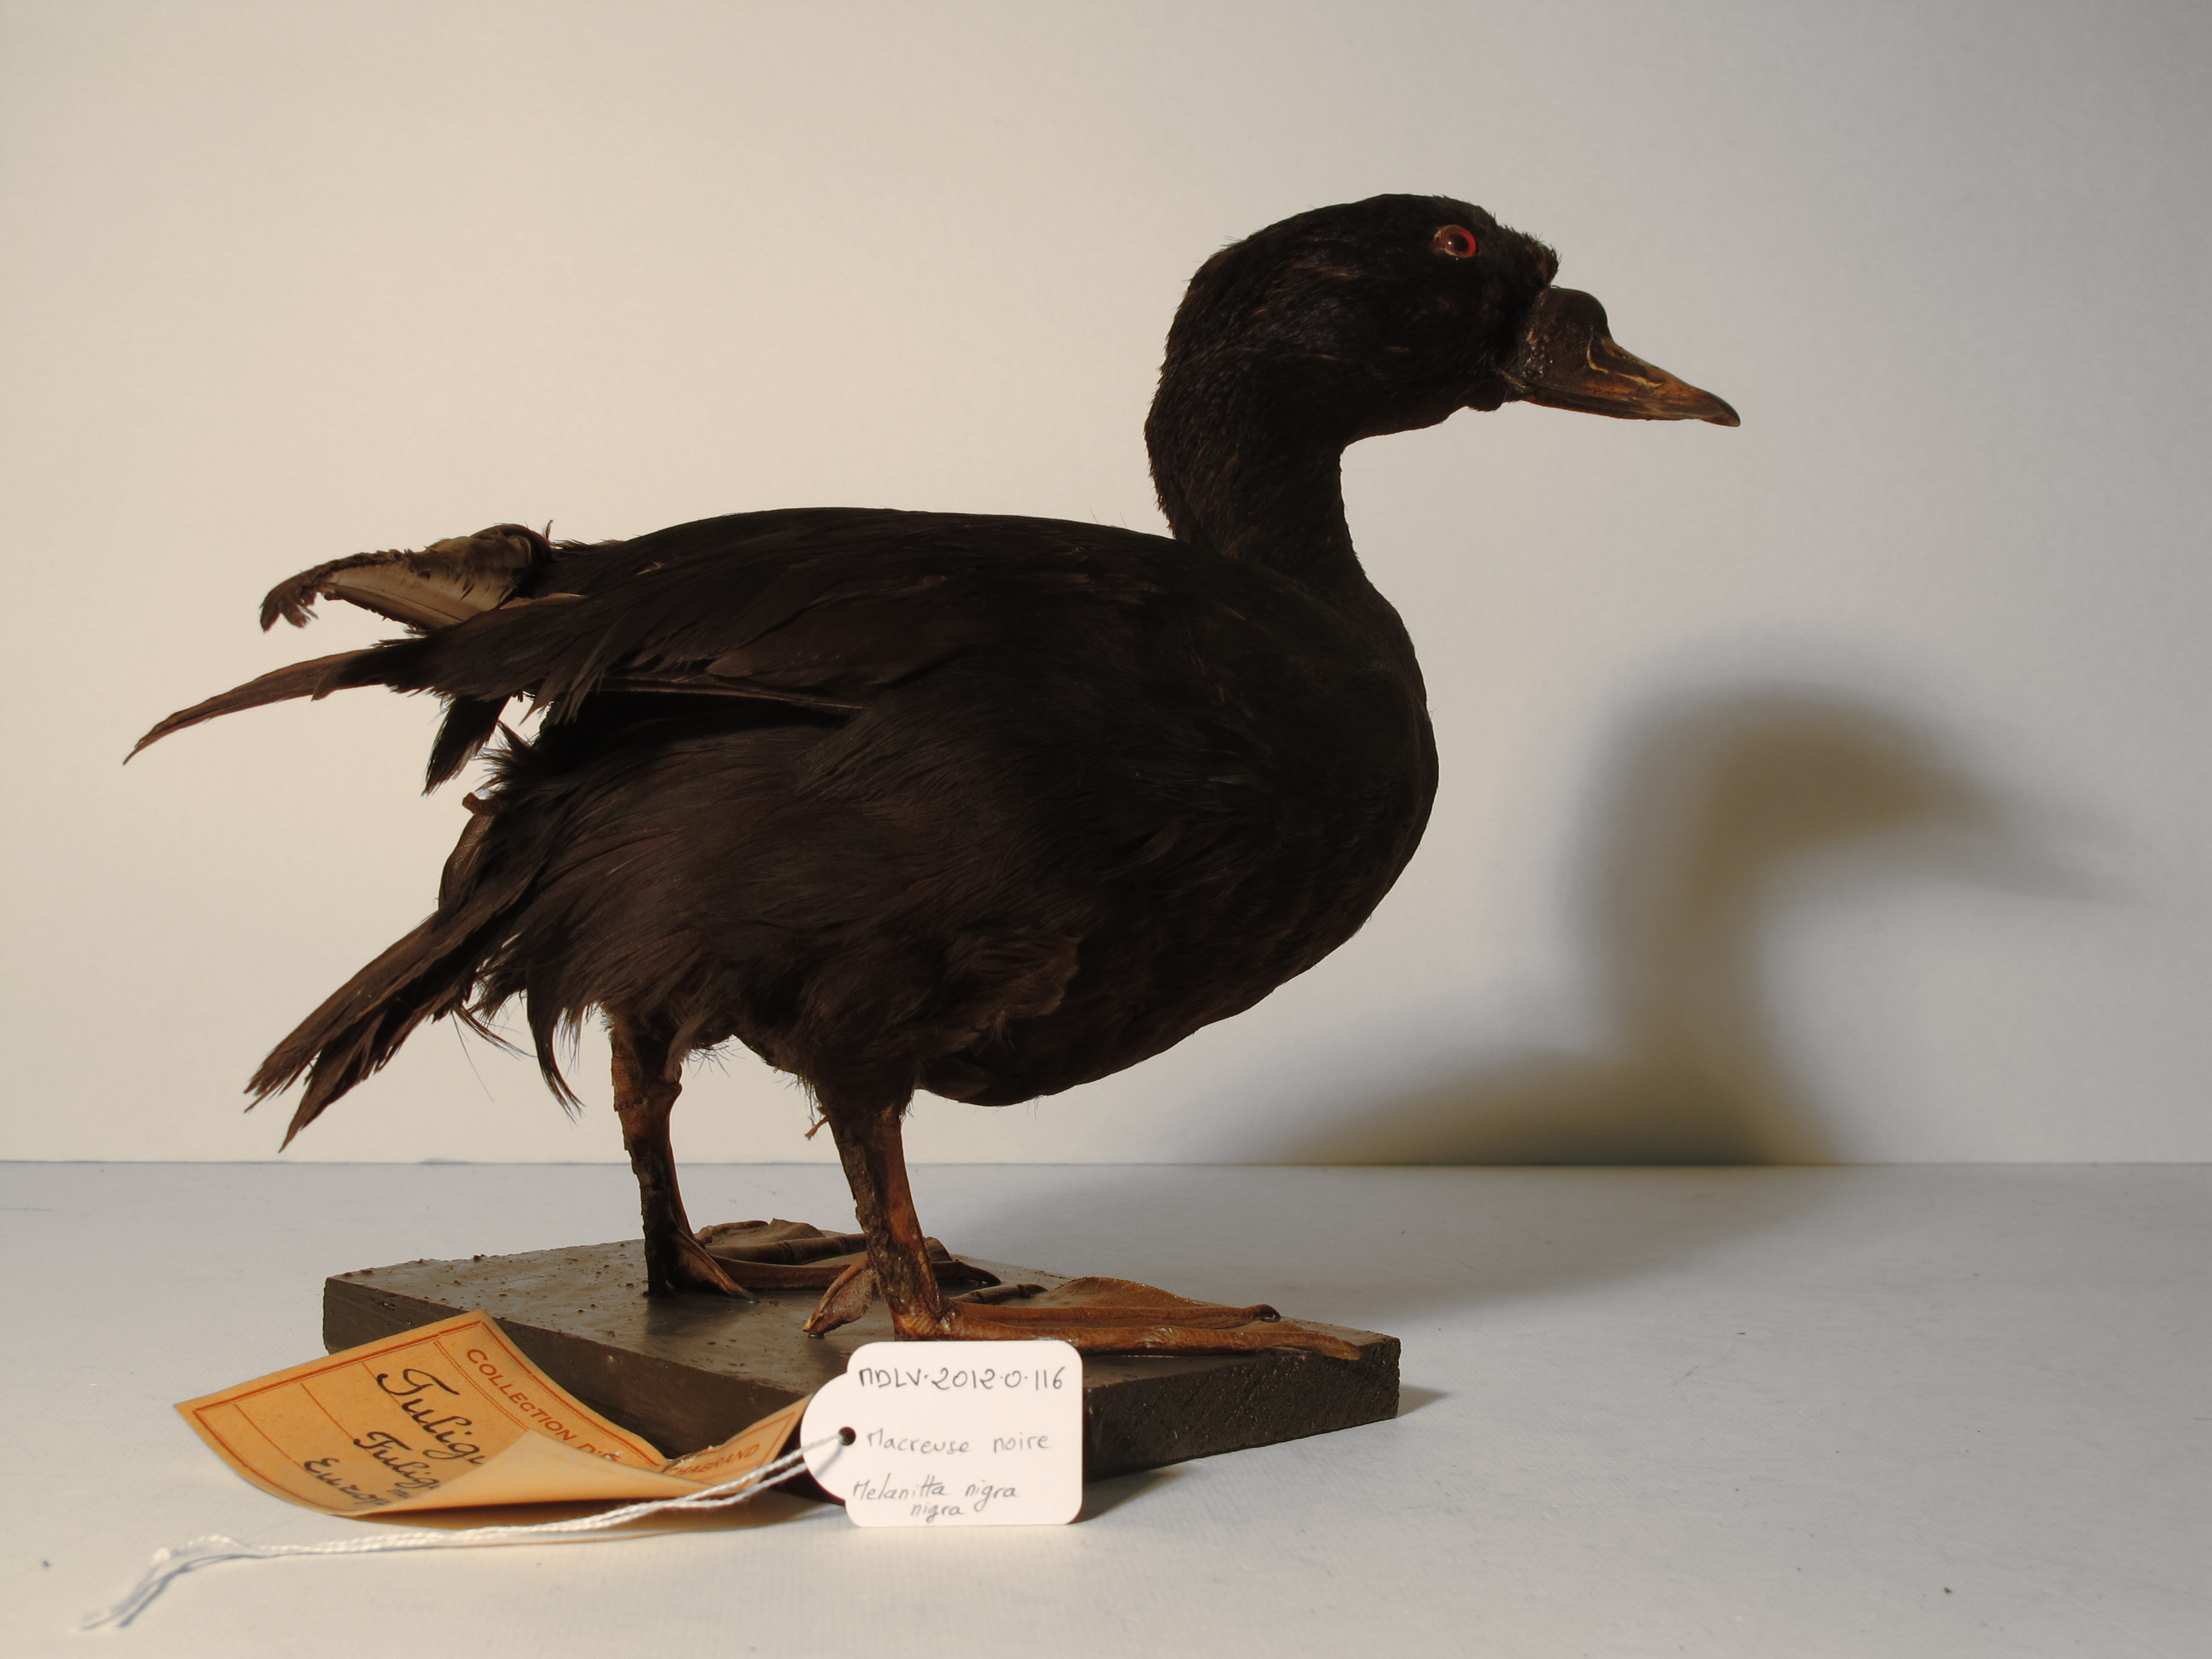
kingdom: Animalia
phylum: Chordata
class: Aves
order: Anseriformes
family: Anatidae
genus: Melanitta
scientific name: Melanitta nigra
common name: Black Scoter
